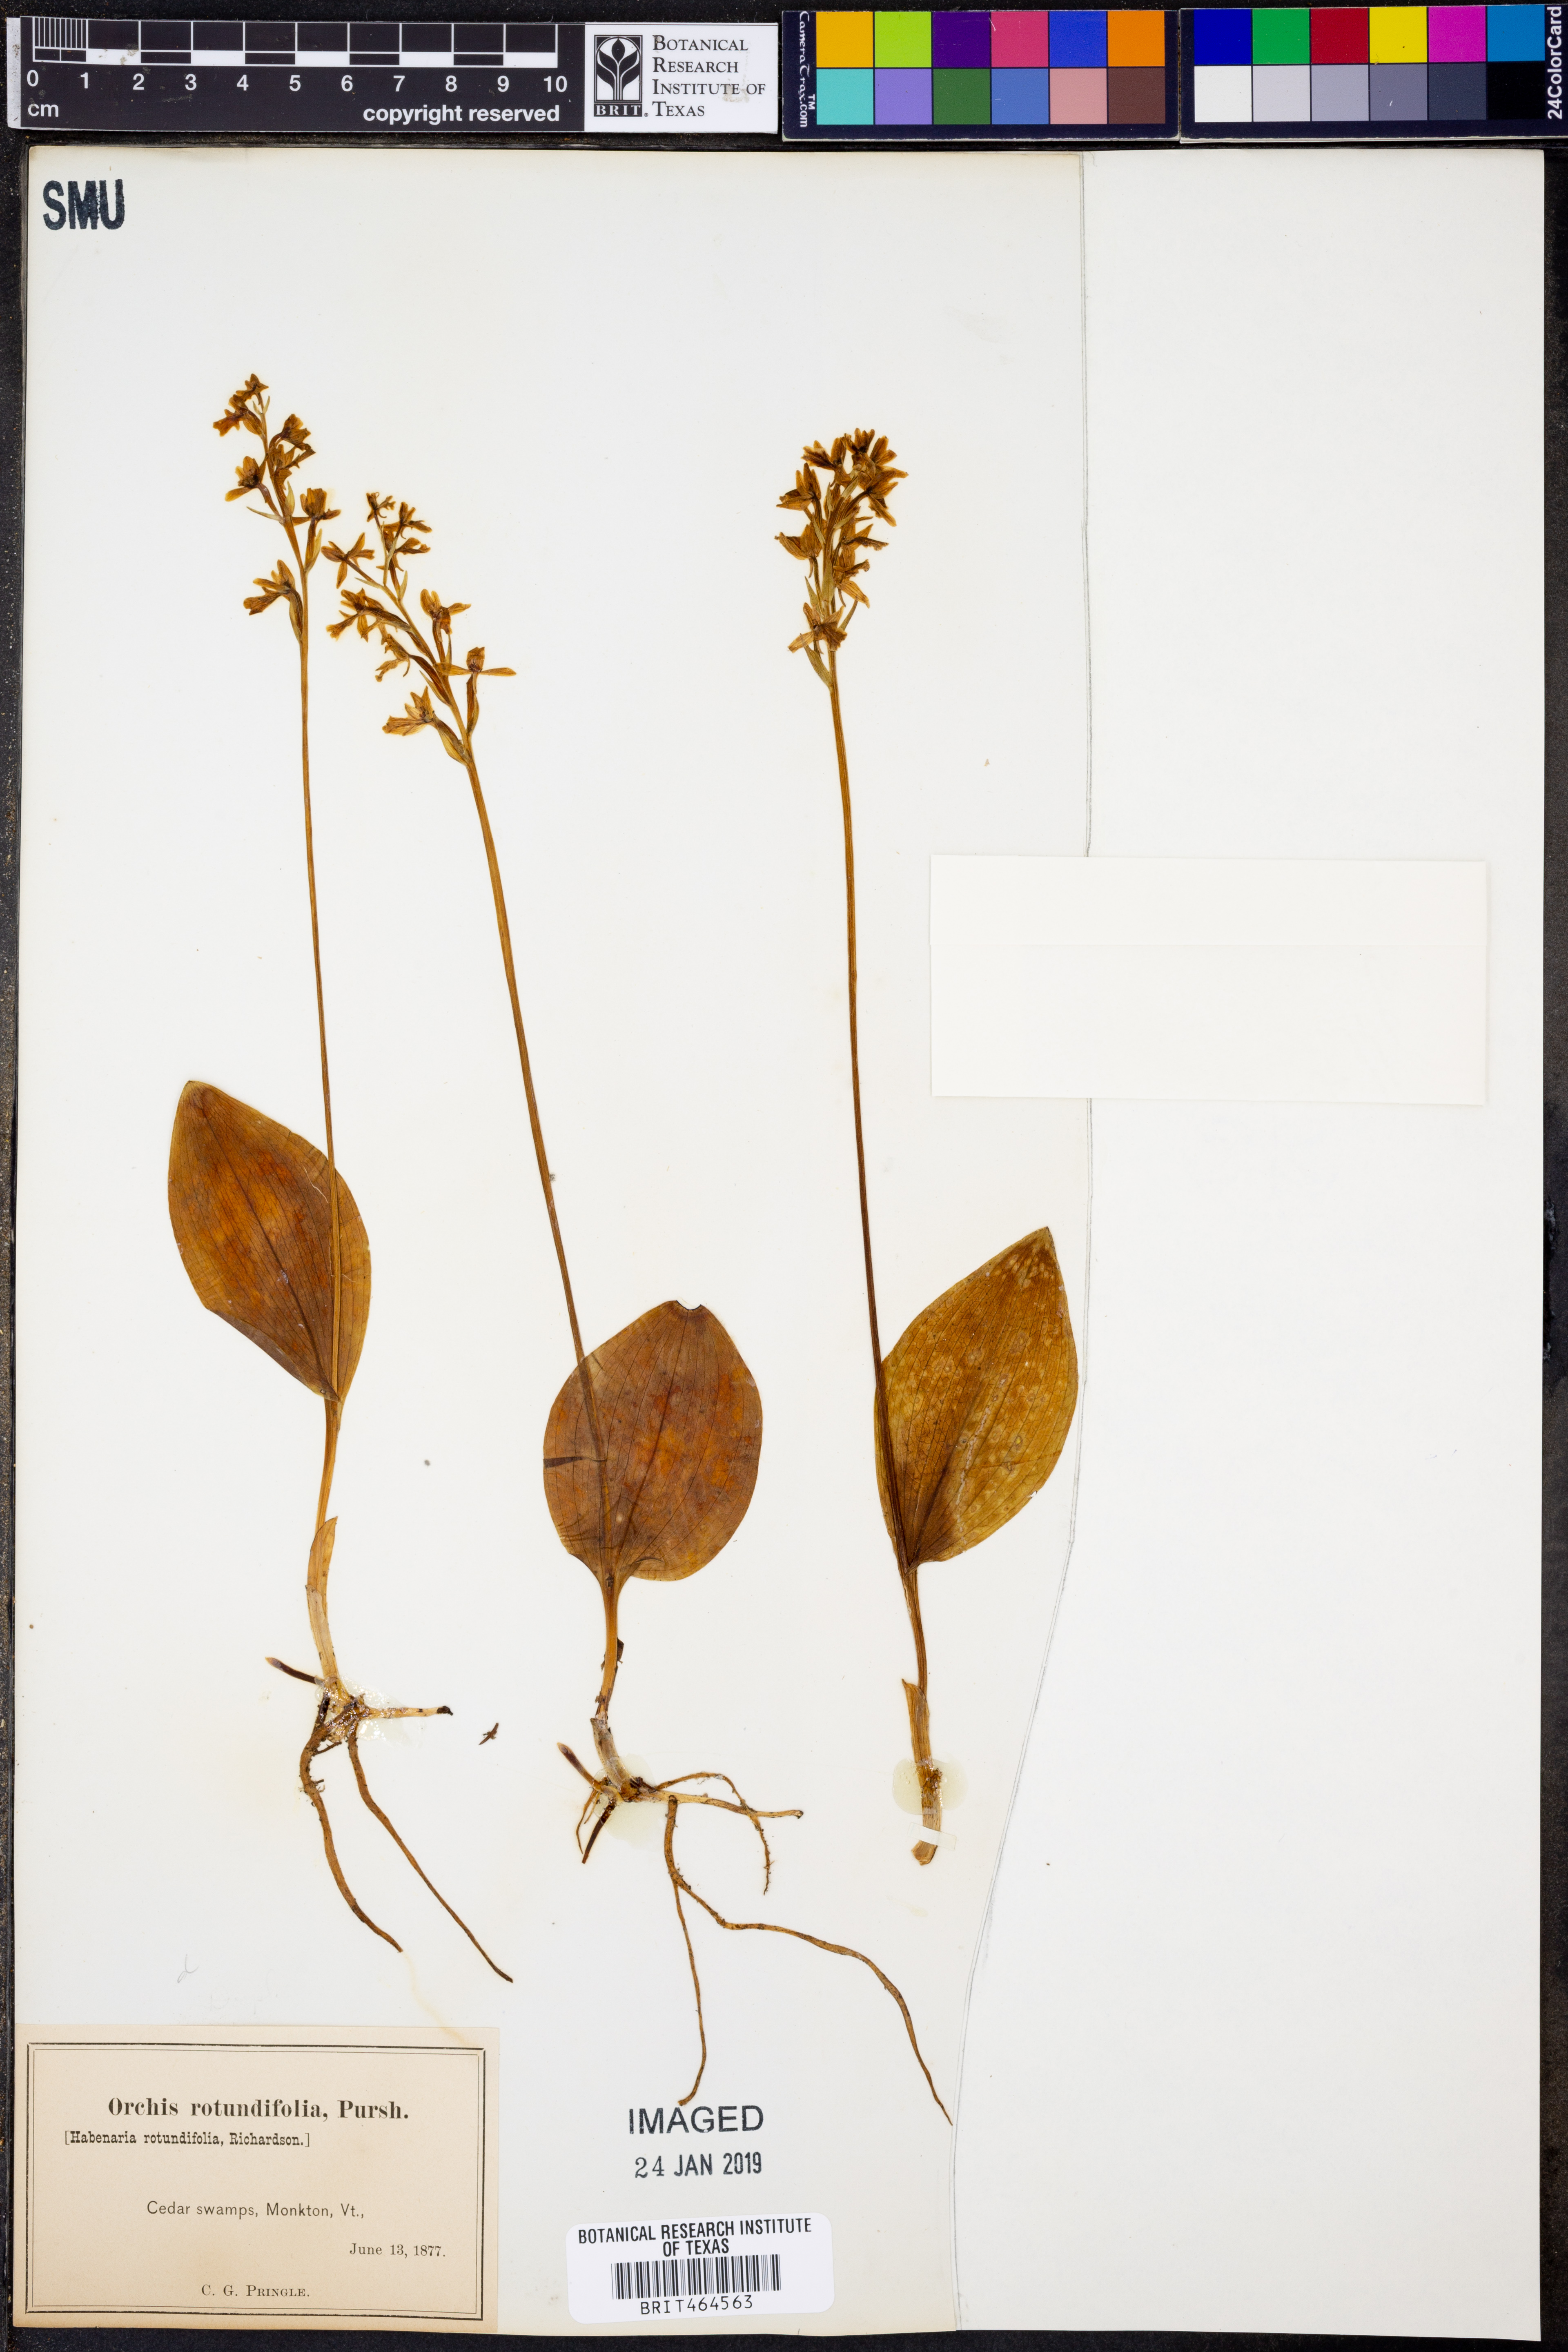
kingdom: Plantae
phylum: Tracheophyta
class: Liliopsida
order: Asparagales
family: Orchidaceae
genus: Galearis
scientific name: Galearis rotundifolia
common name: One-leaved orchis
